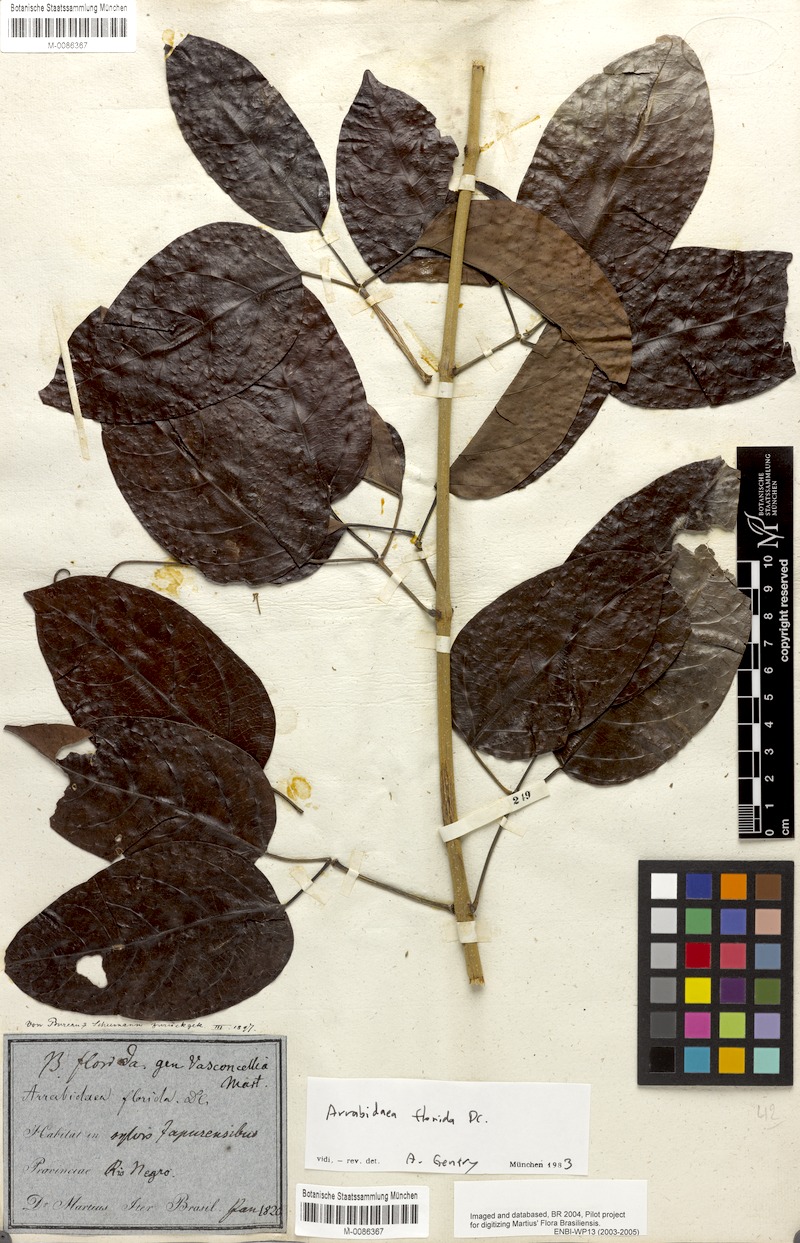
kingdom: Plantae
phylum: Tracheophyta
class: Magnoliopsida
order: Lamiales
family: Bignoniaceae
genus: Fridericia
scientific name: Fridericia florida
